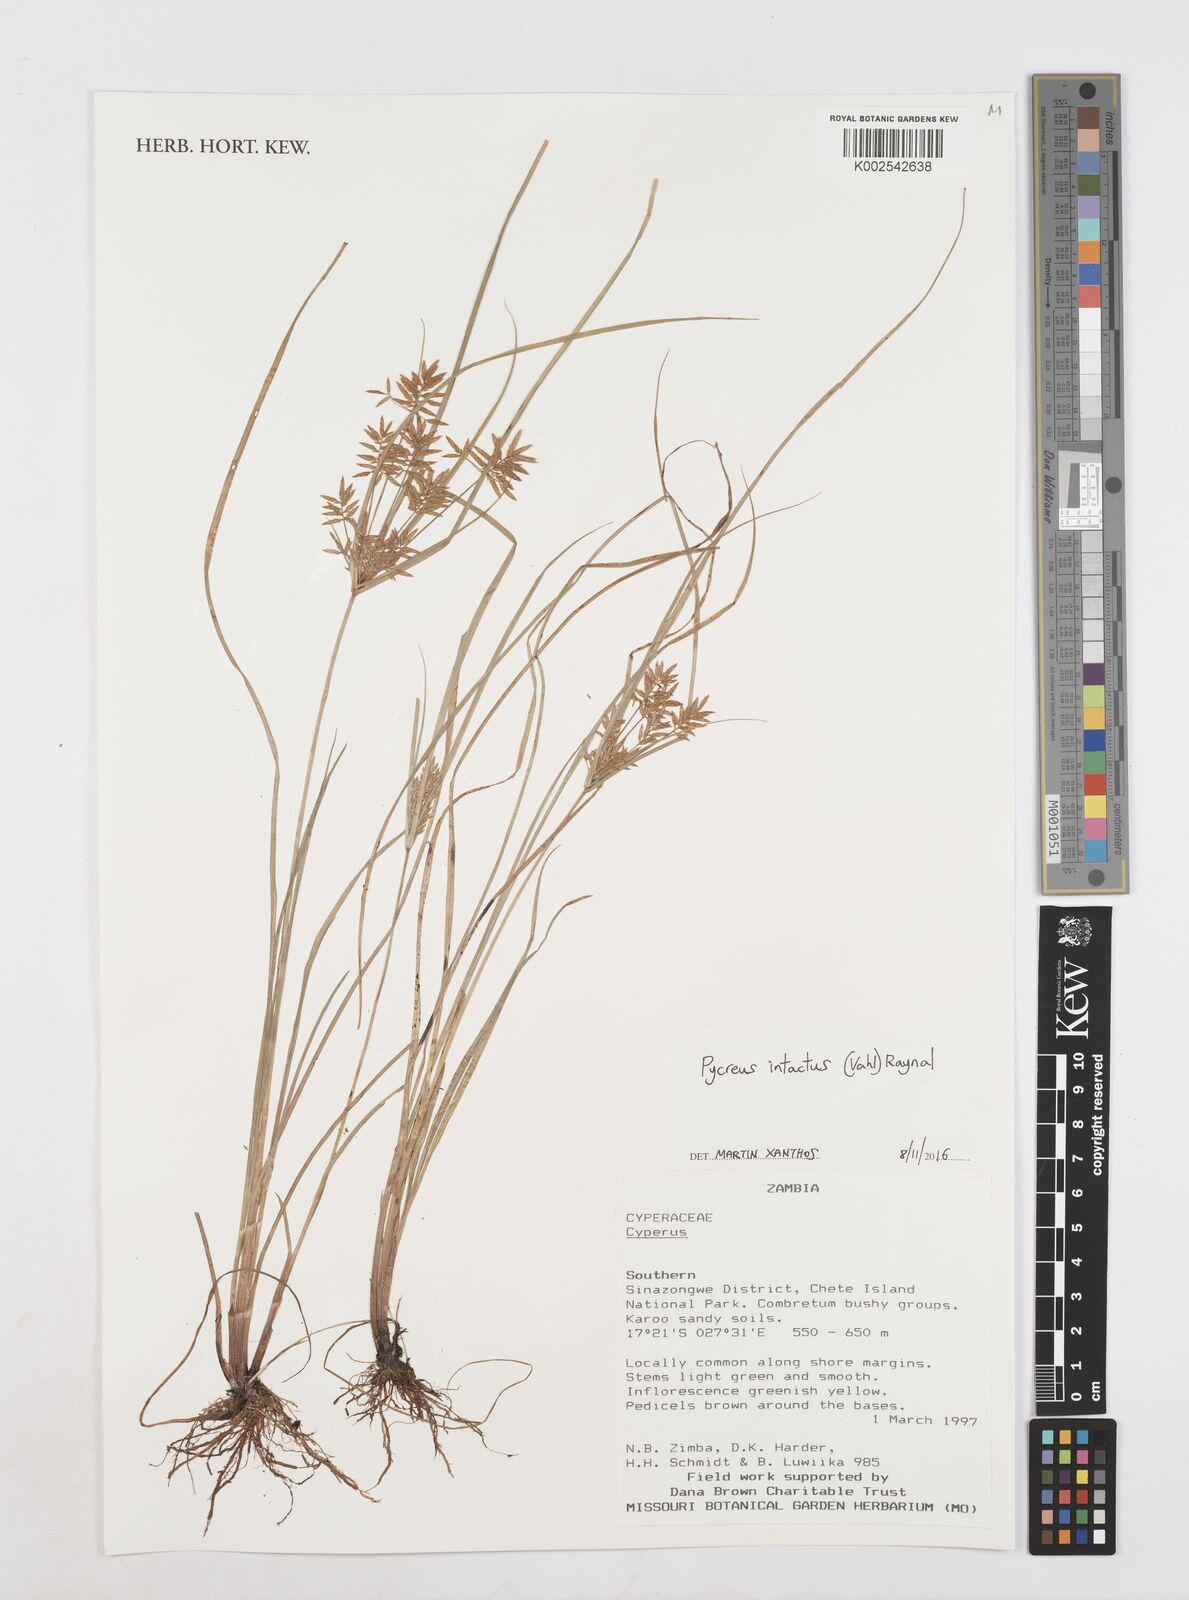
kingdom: Plantae
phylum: Tracheophyta
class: Liliopsida
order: Poales
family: Cyperaceae
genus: Cyperus
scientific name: Cyperus intactus
